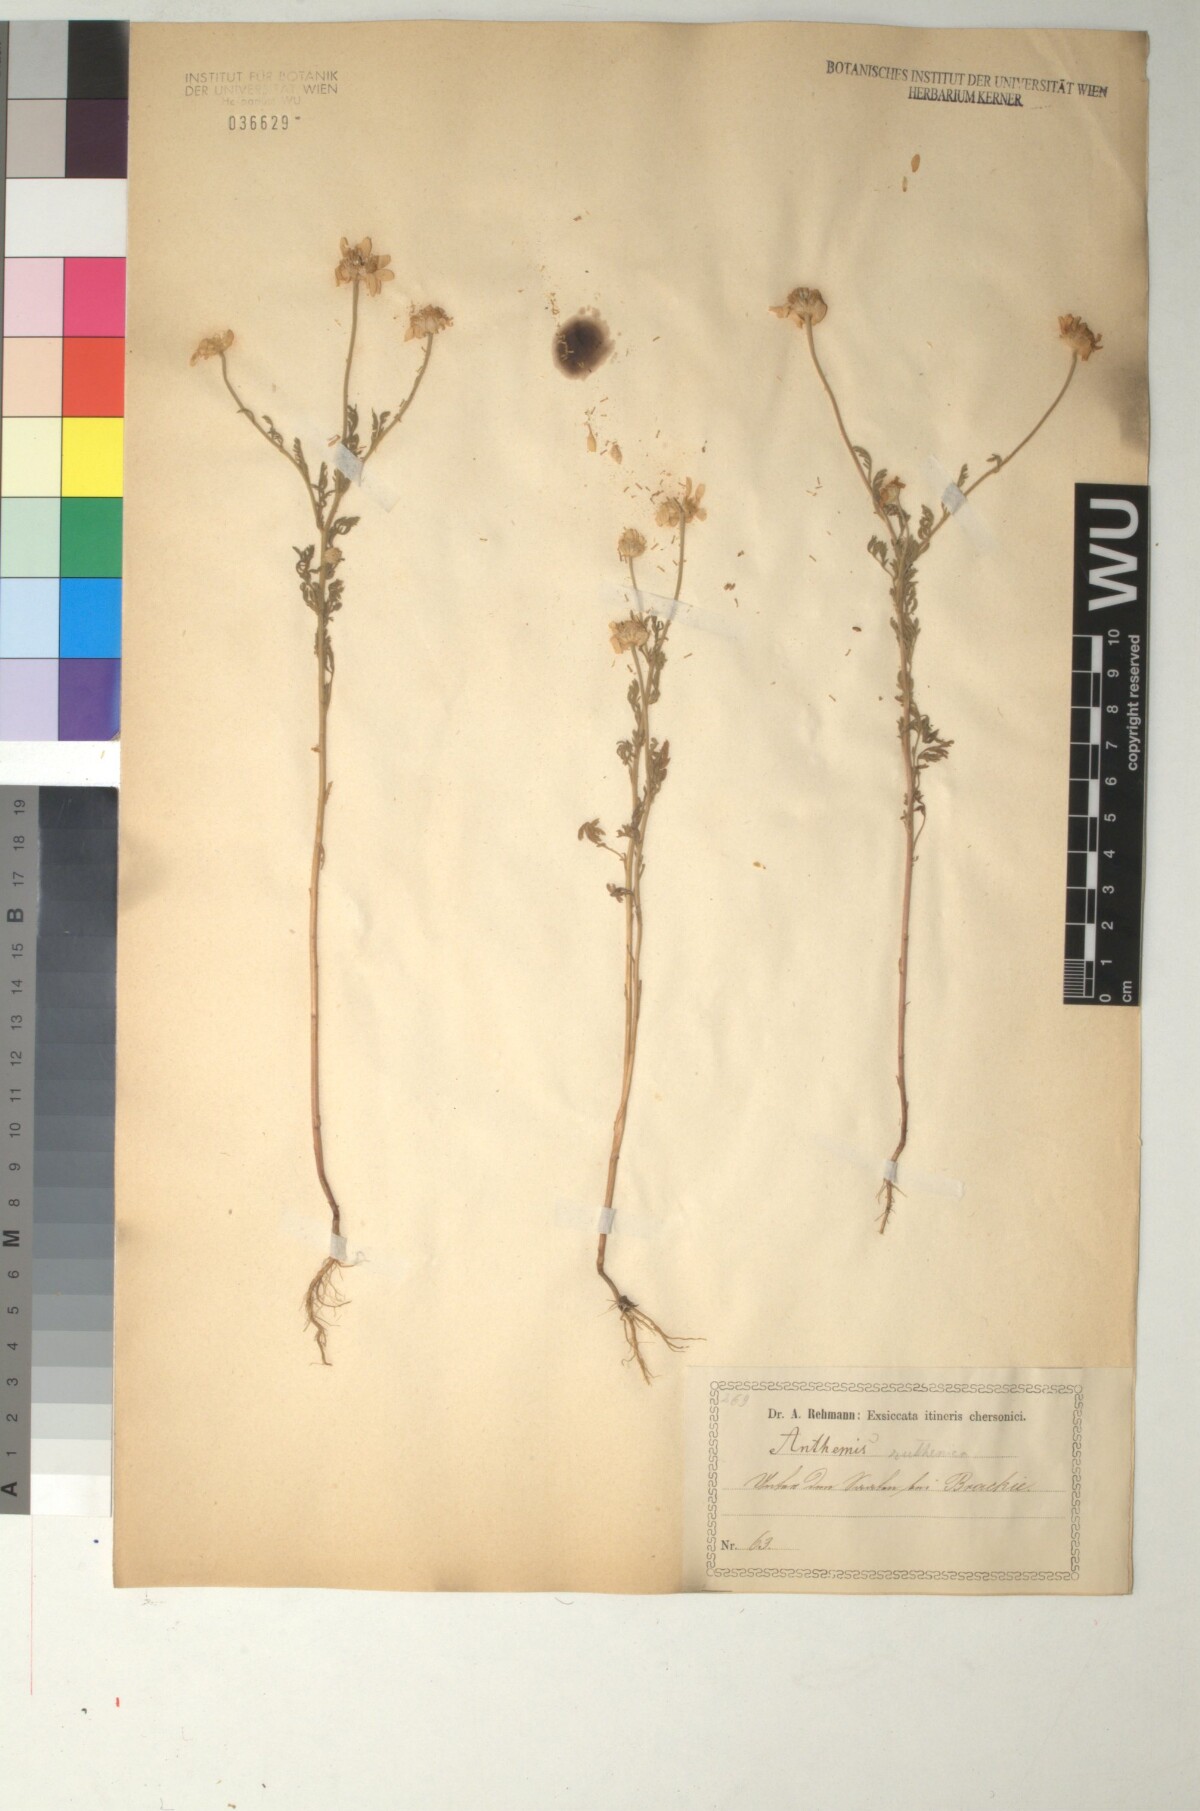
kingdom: Plantae
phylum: Tracheophyta
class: Magnoliopsida
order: Asterales
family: Asteraceae
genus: Anthemis
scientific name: Anthemis ruthenica
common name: Eastern chamomile
